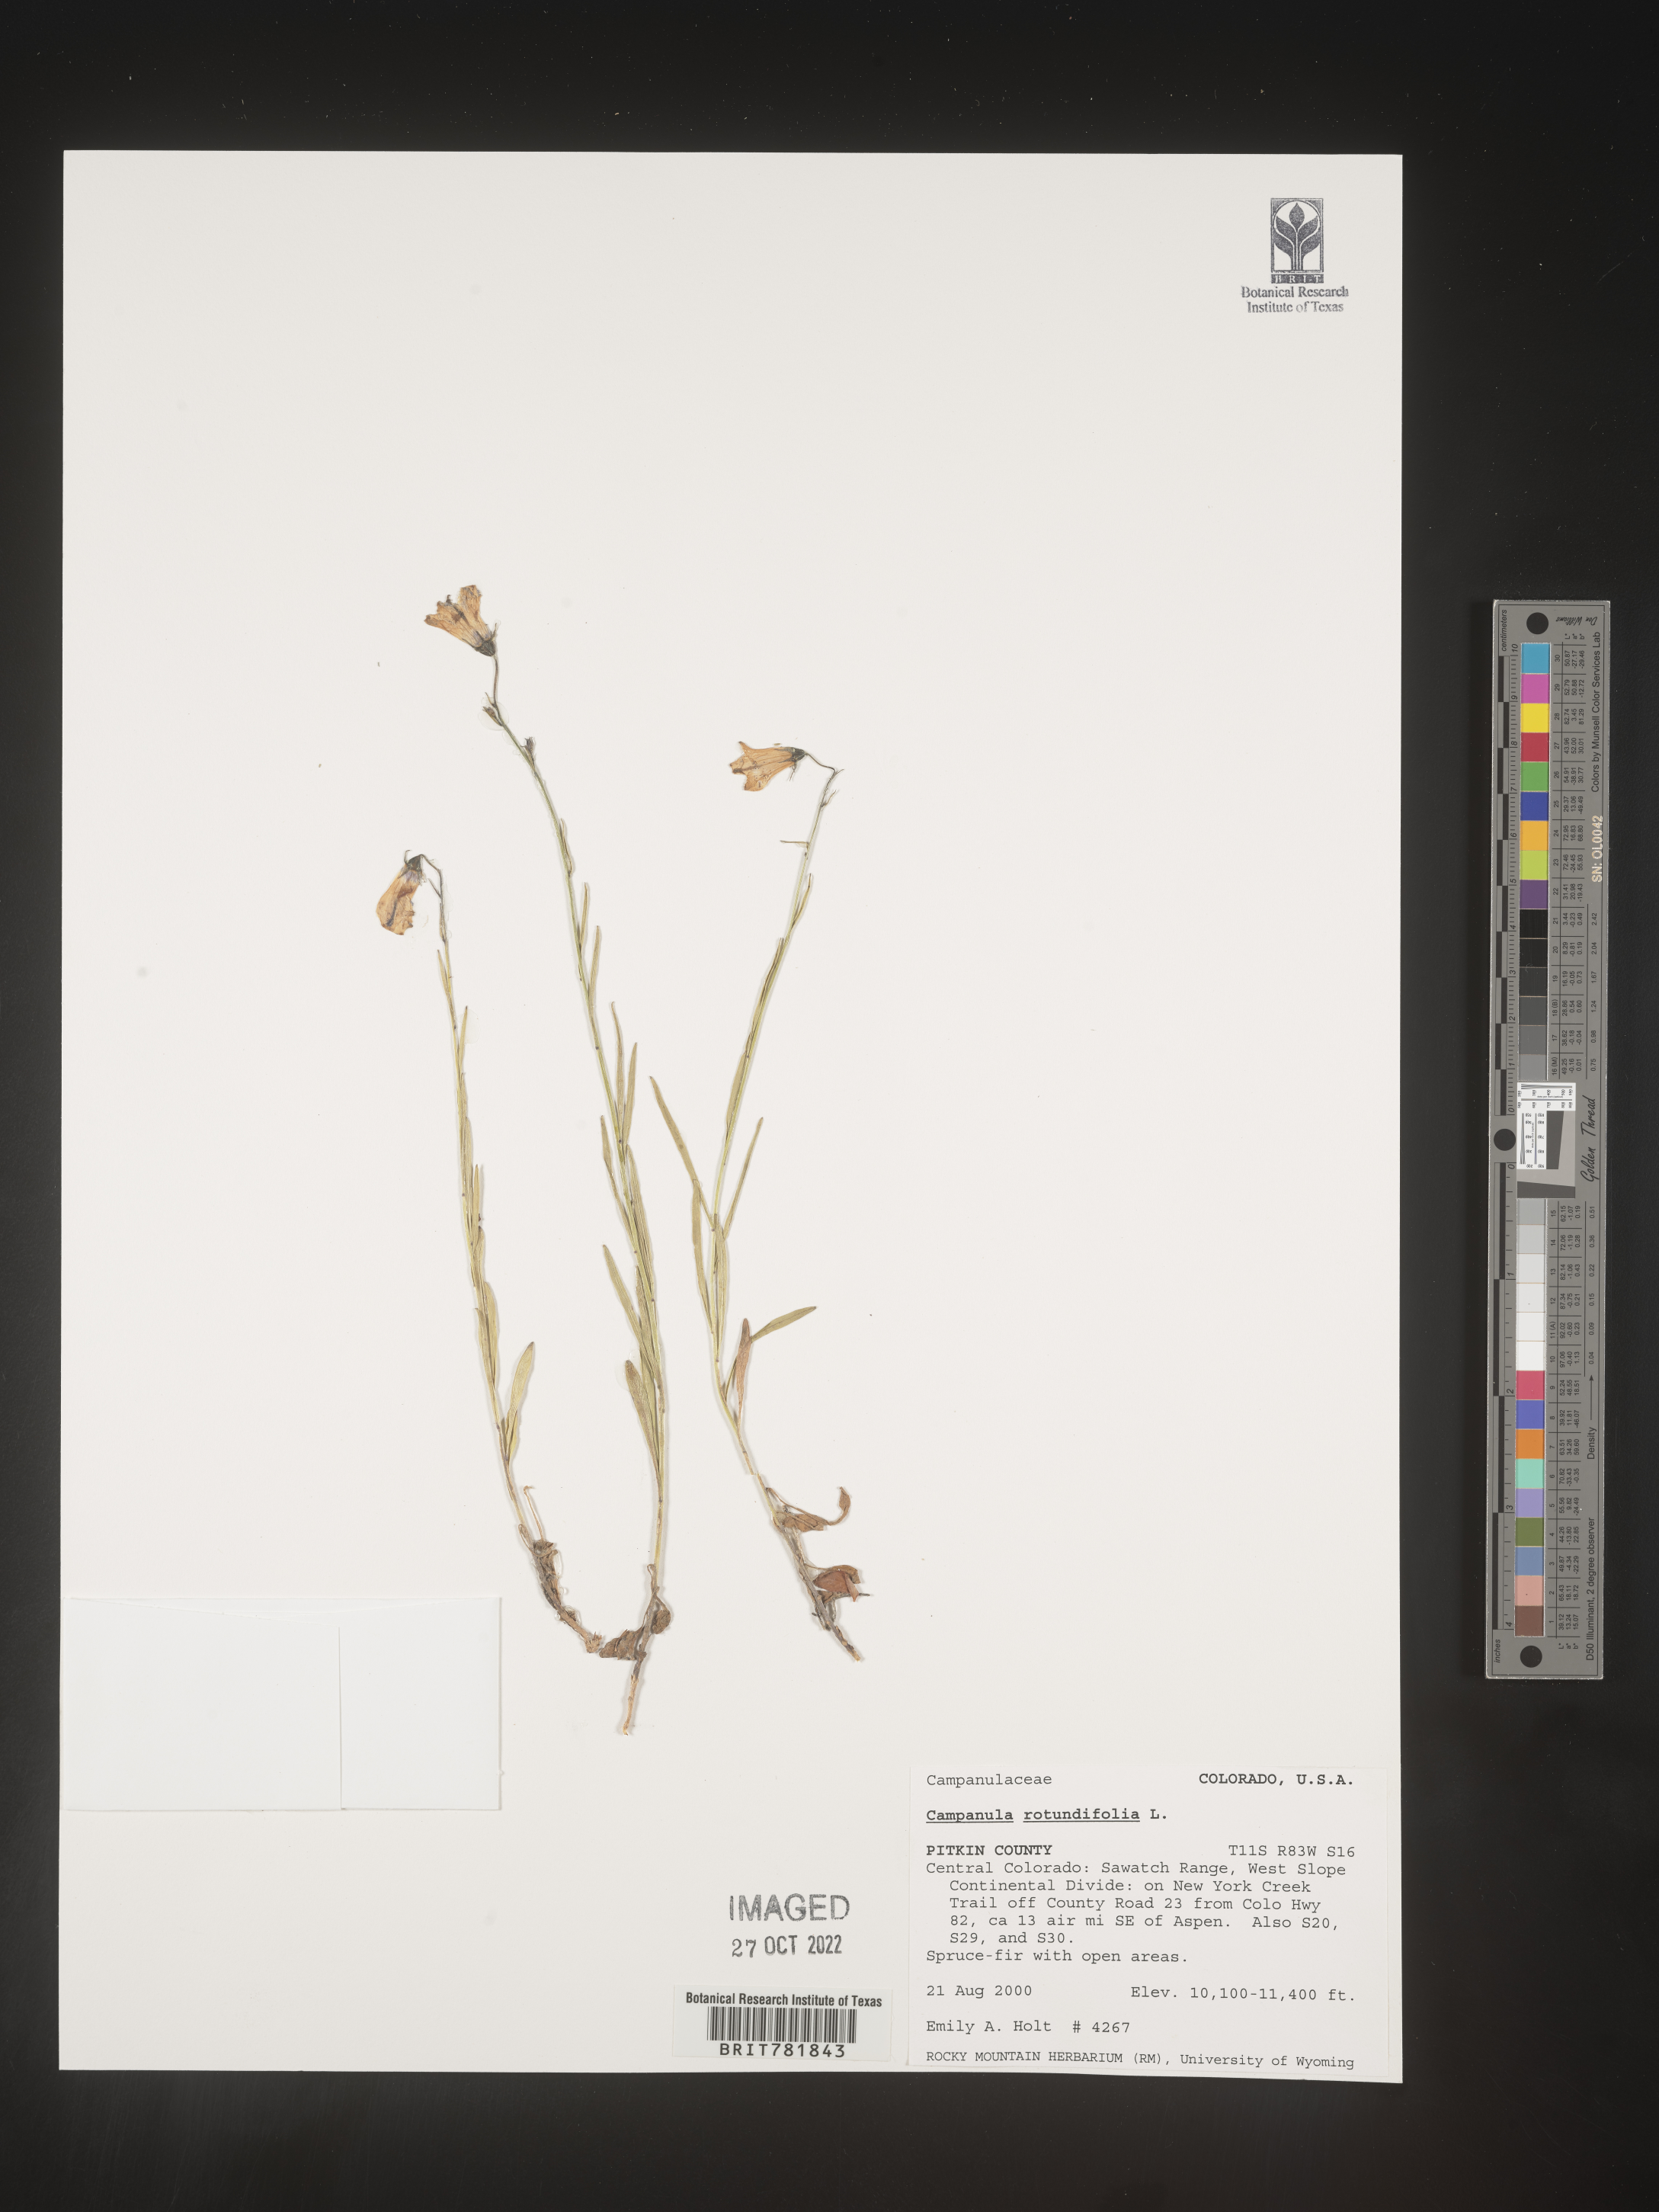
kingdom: Plantae
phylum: Tracheophyta
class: Magnoliopsida
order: Asterales
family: Campanulaceae
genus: Campanula
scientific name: Campanula rotundifolia
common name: Harebell
